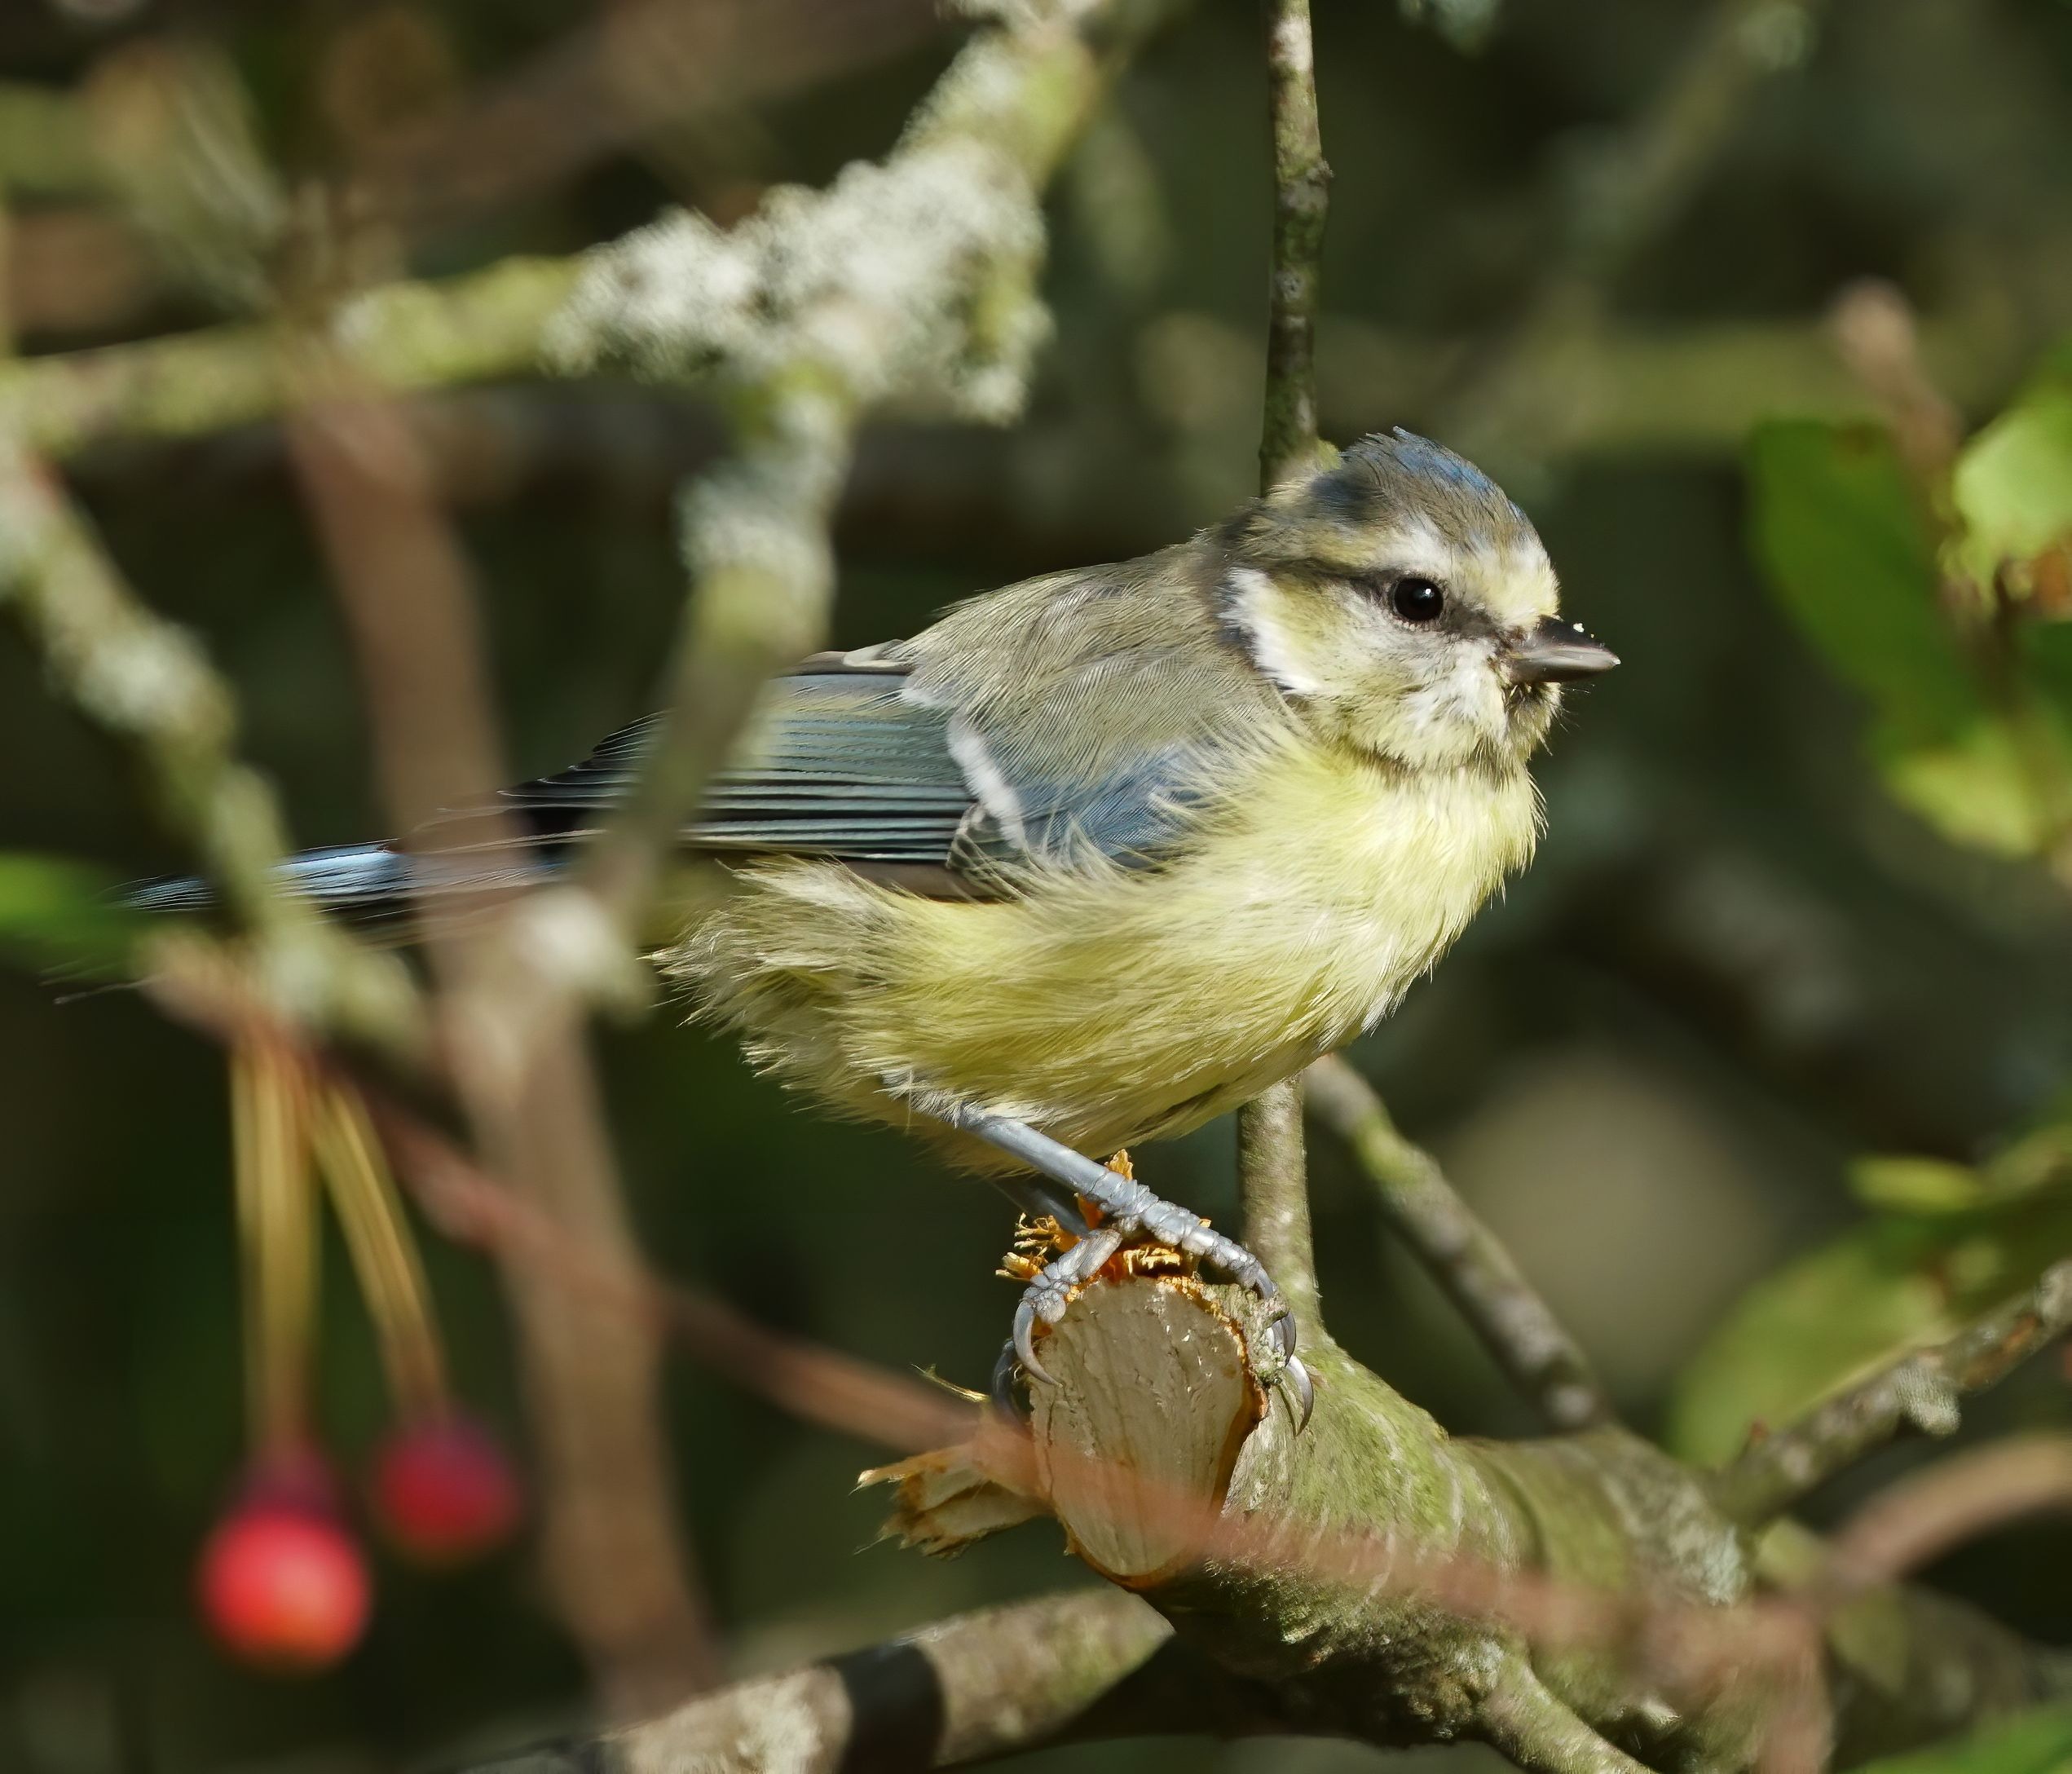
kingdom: Animalia
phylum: Chordata
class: Aves
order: Passeriformes
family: Paridae
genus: Cyanistes
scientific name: Cyanistes caeruleus
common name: Blåmejse
